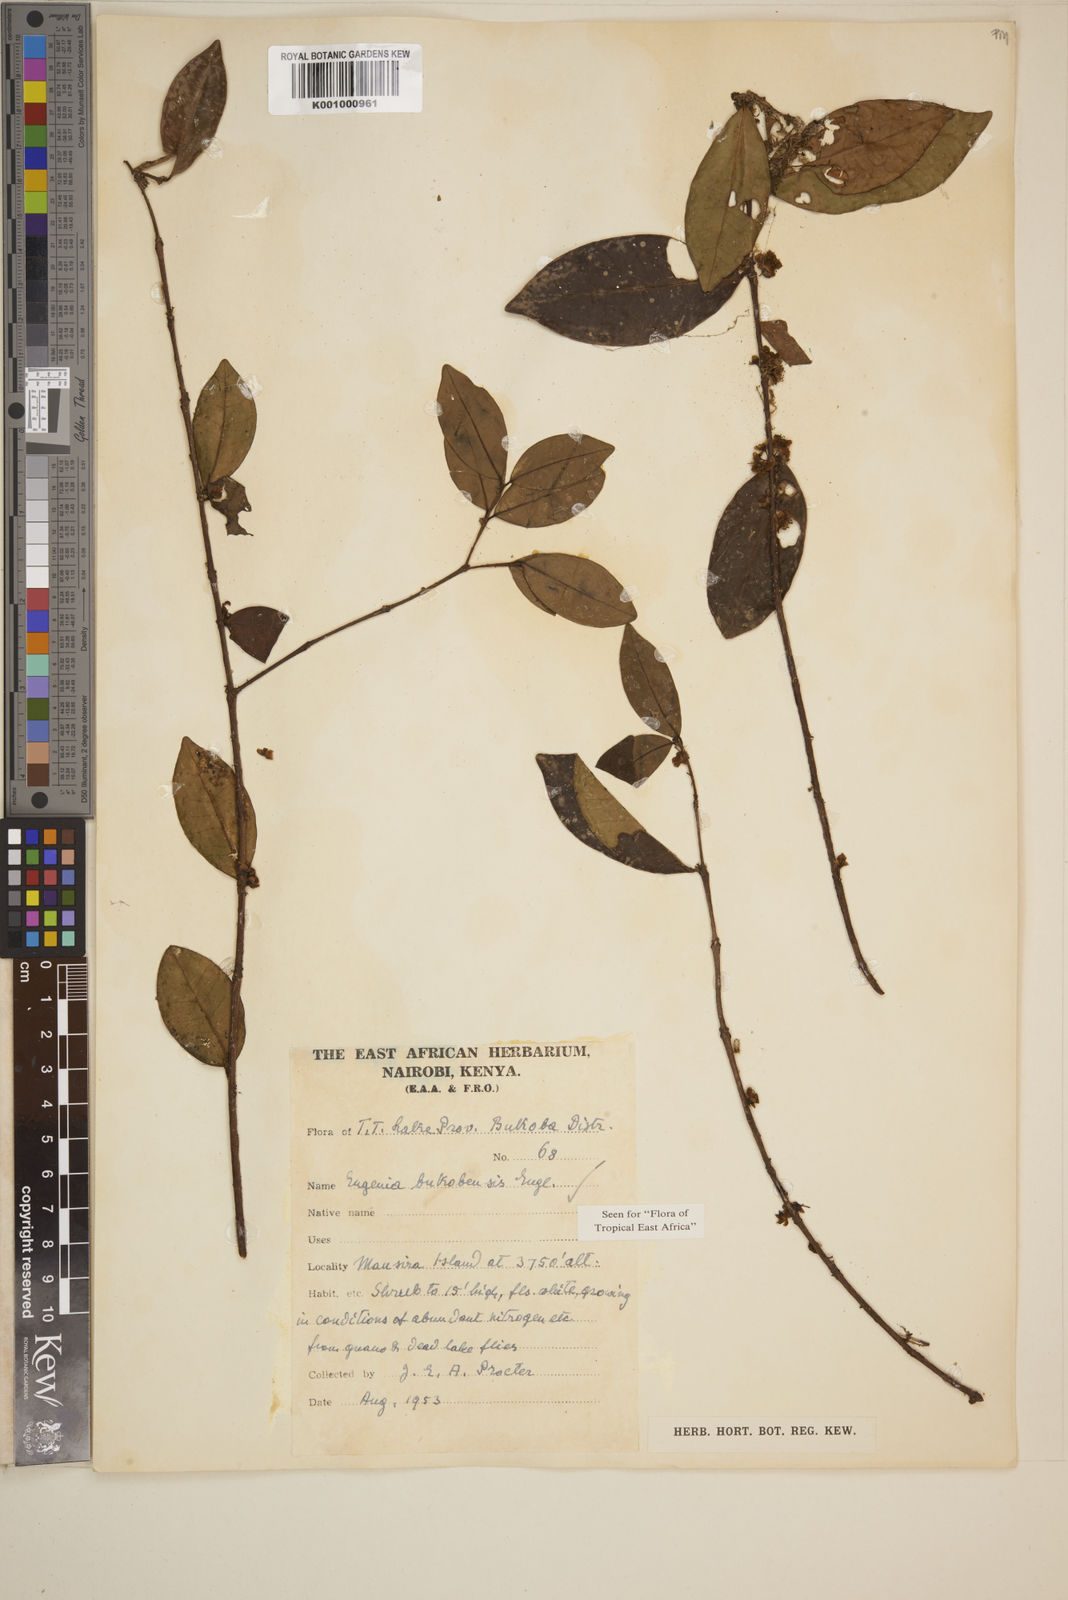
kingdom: Plantae
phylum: Tracheophyta
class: Magnoliopsida
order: Myrtales
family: Myrtaceae
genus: Eugenia
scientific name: Eugenia bukobensis
